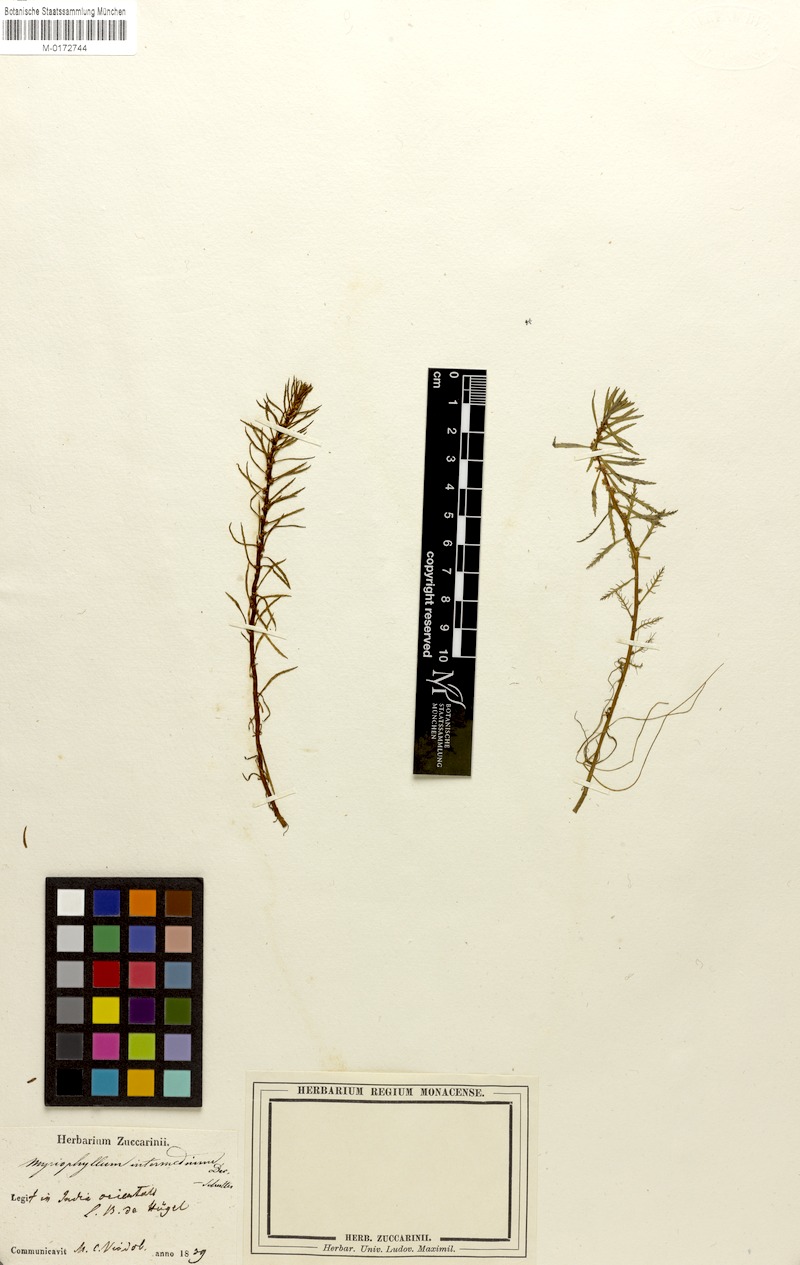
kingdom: Plantae
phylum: Tracheophyta
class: Magnoliopsida
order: Saxifragales
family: Haloragaceae
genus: Myriophyllum
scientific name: Myriophyllum indicum
